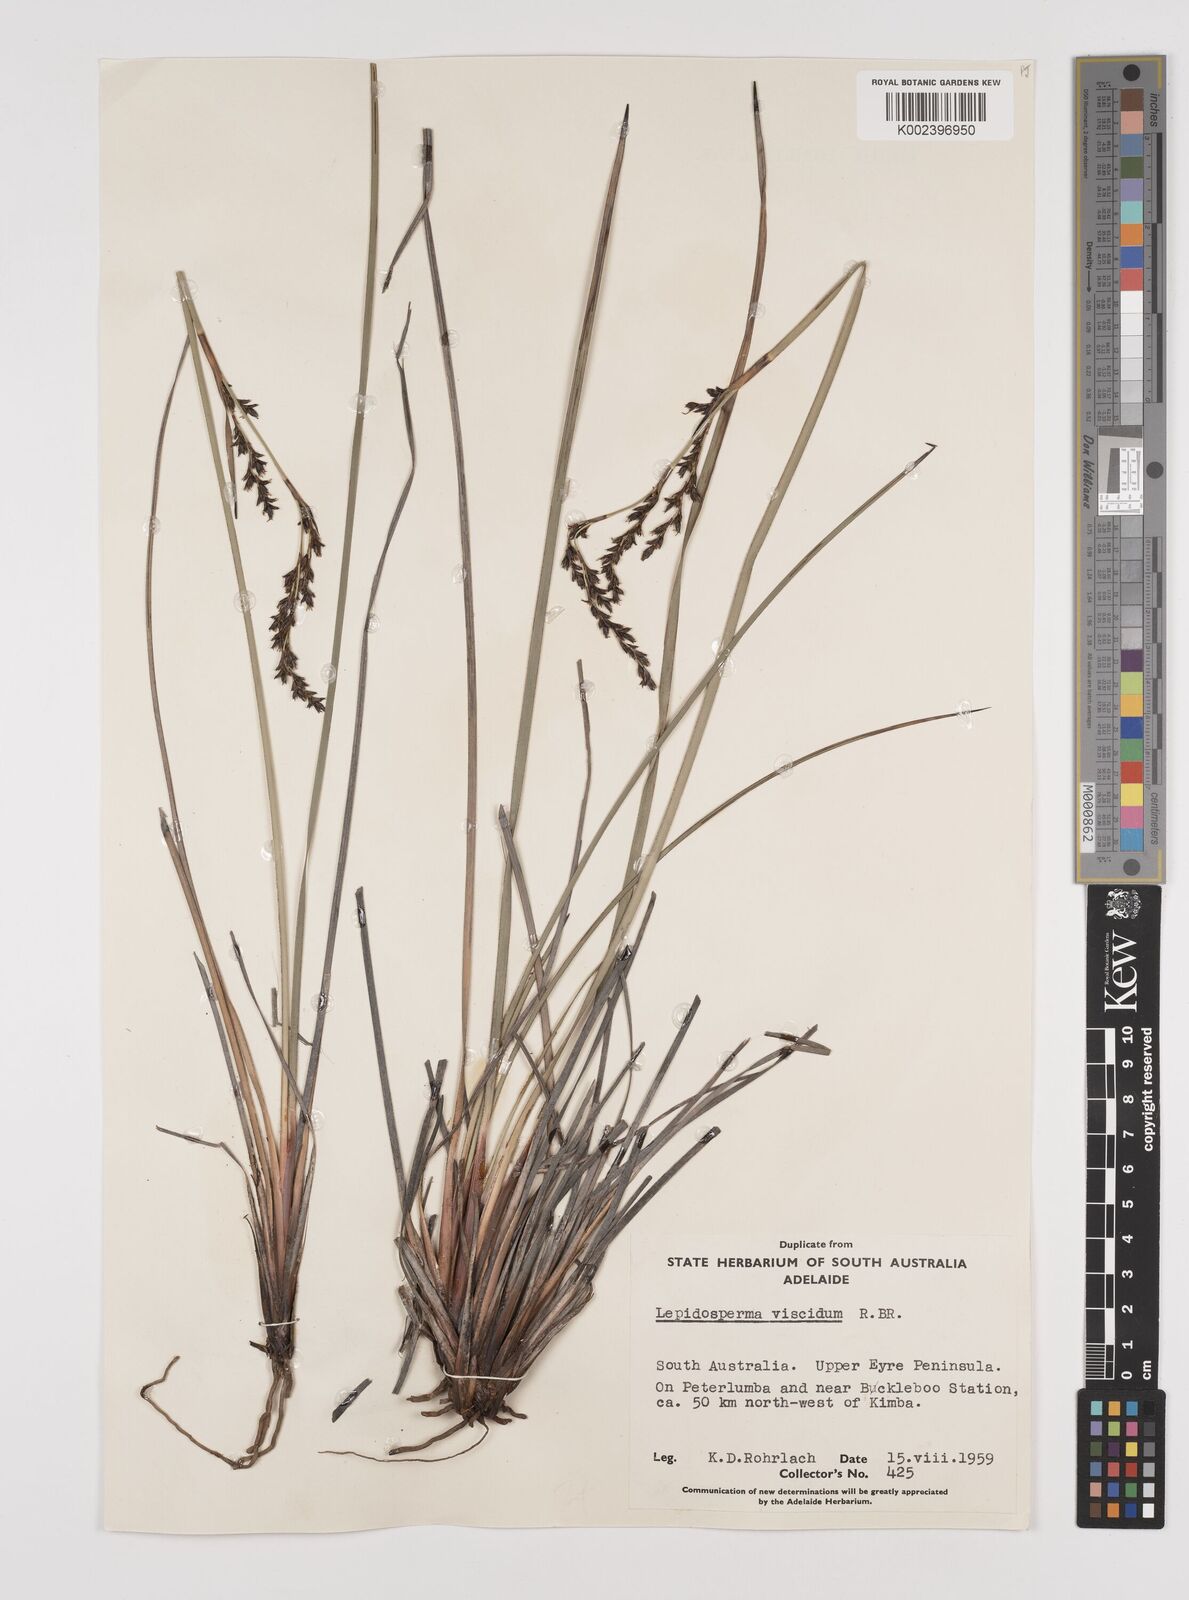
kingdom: Plantae
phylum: Tracheophyta
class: Liliopsida
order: Poales
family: Cyperaceae
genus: Lepidosperma
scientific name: Lepidosperma viscidum
